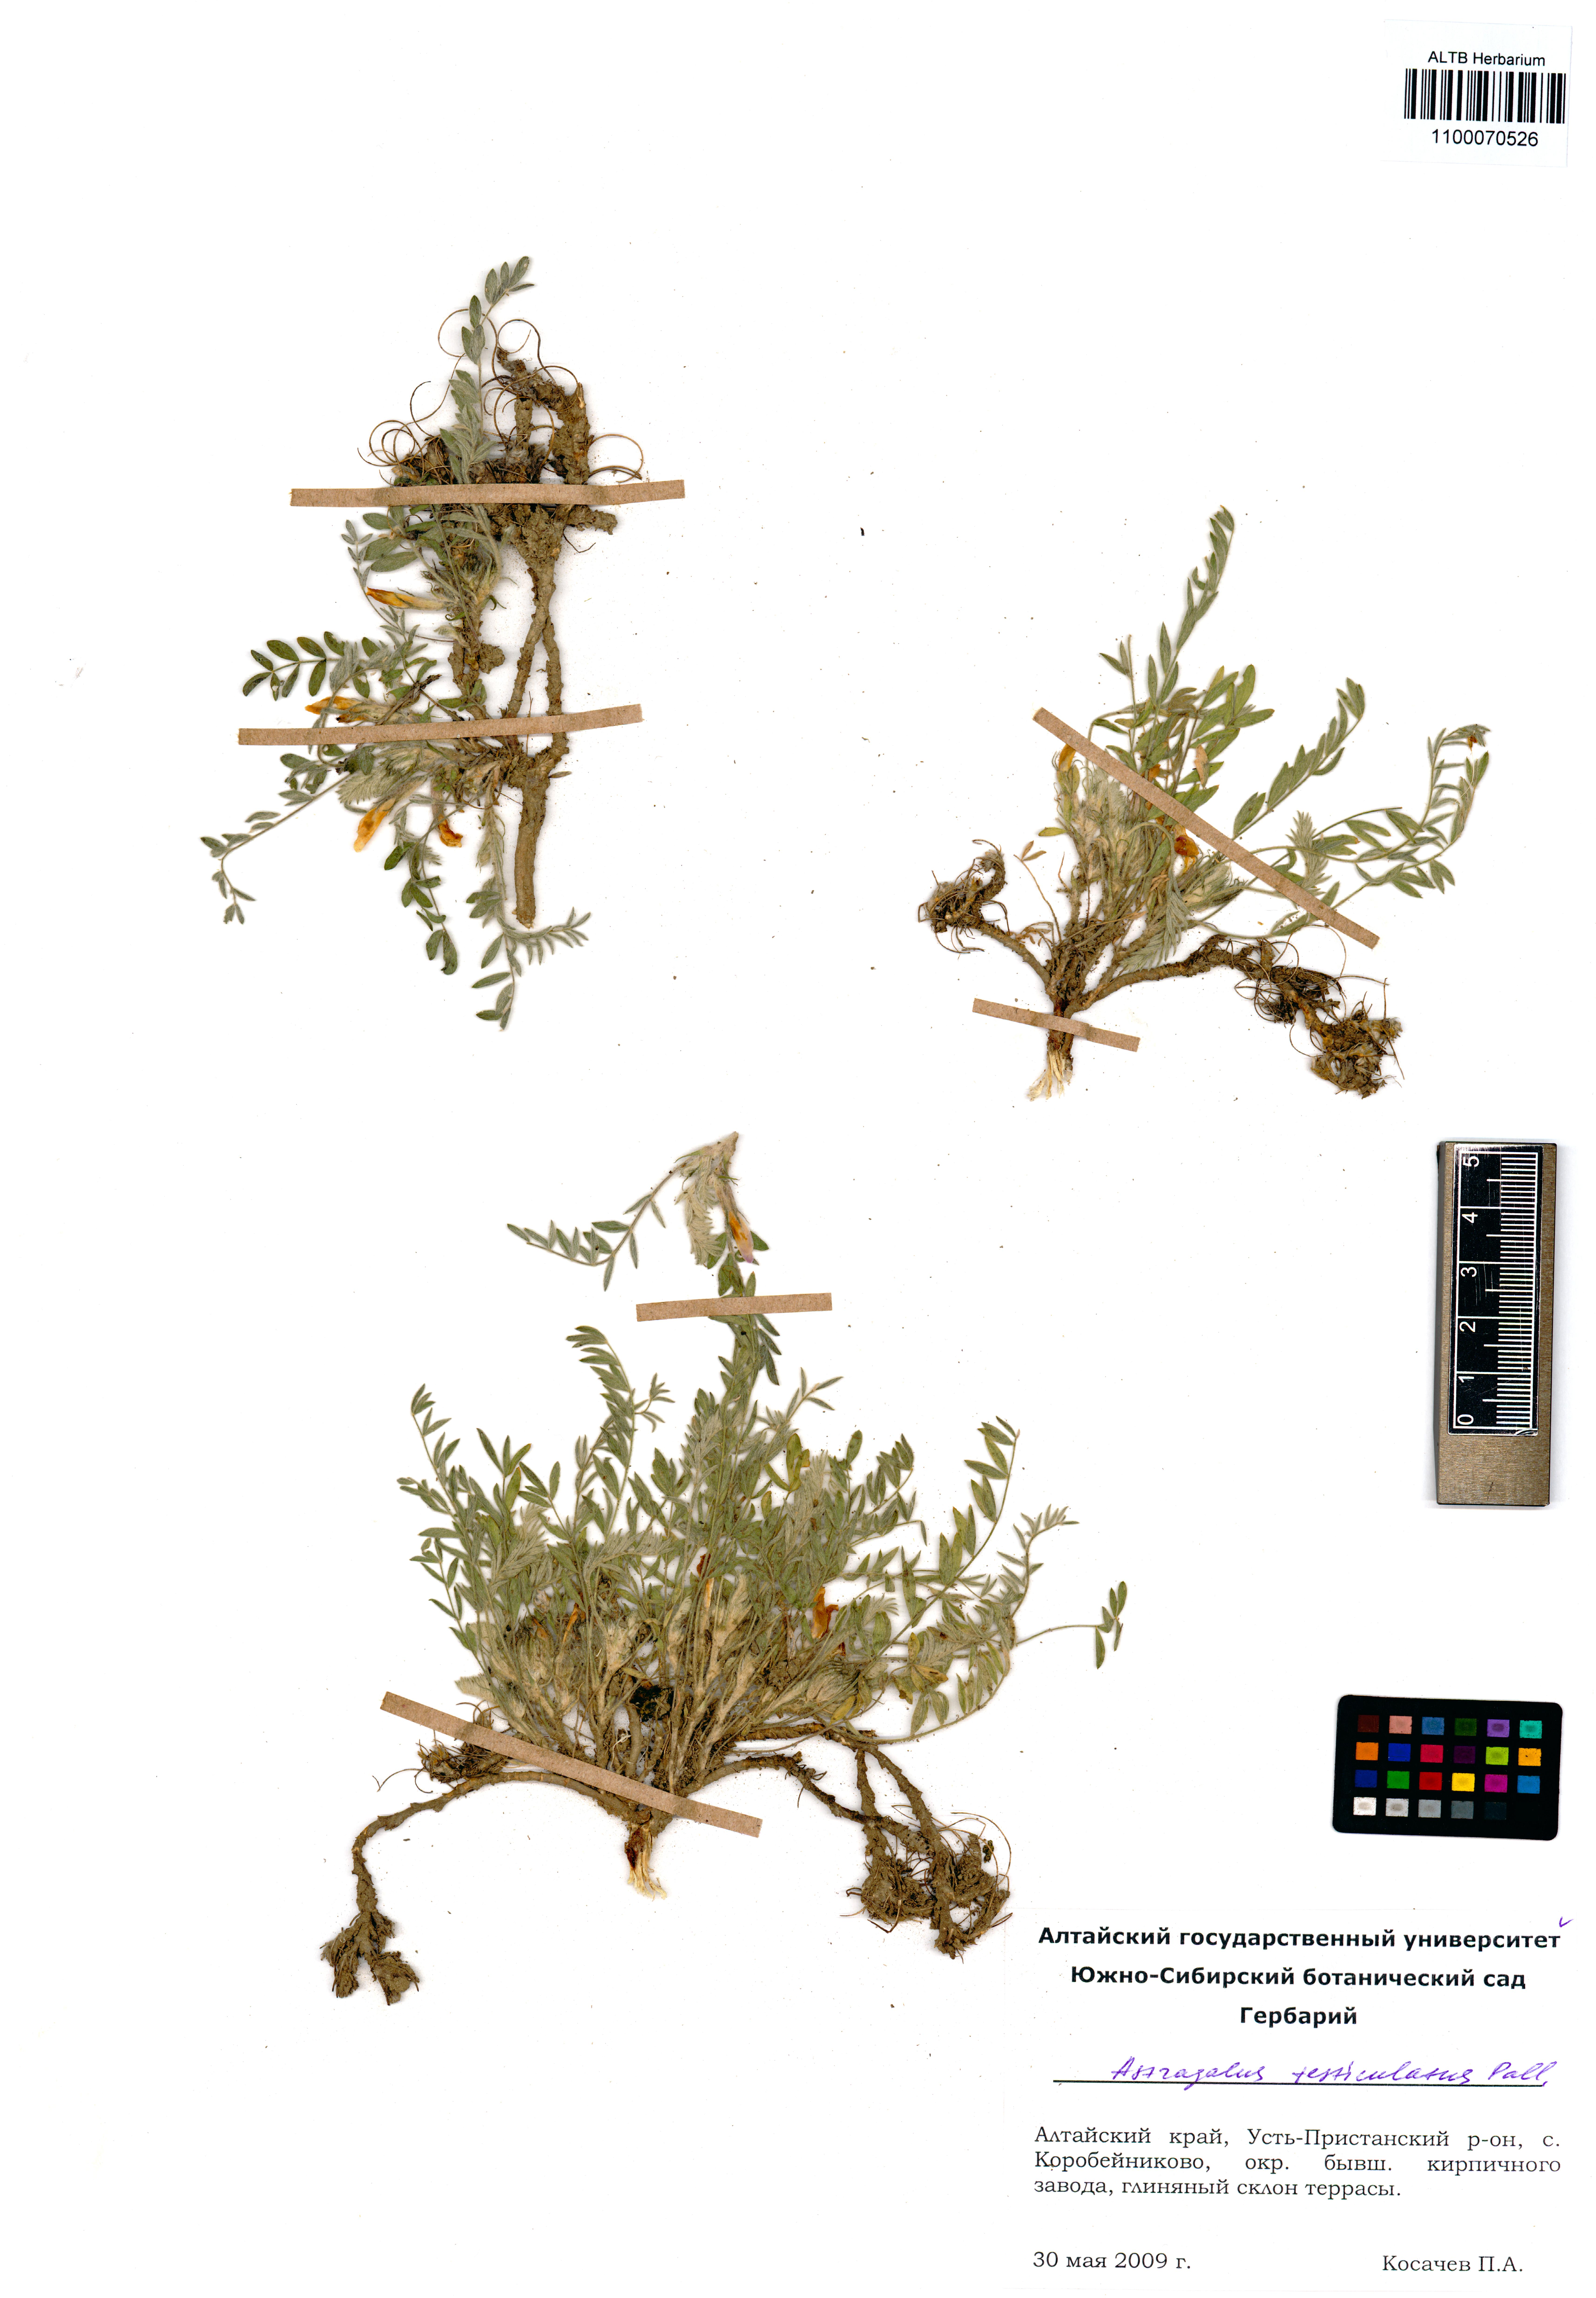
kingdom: Plantae
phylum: Tracheophyta
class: Magnoliopsida
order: Fabales
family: Fabaceae
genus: Astragalus
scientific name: Astragalus testiculatus
